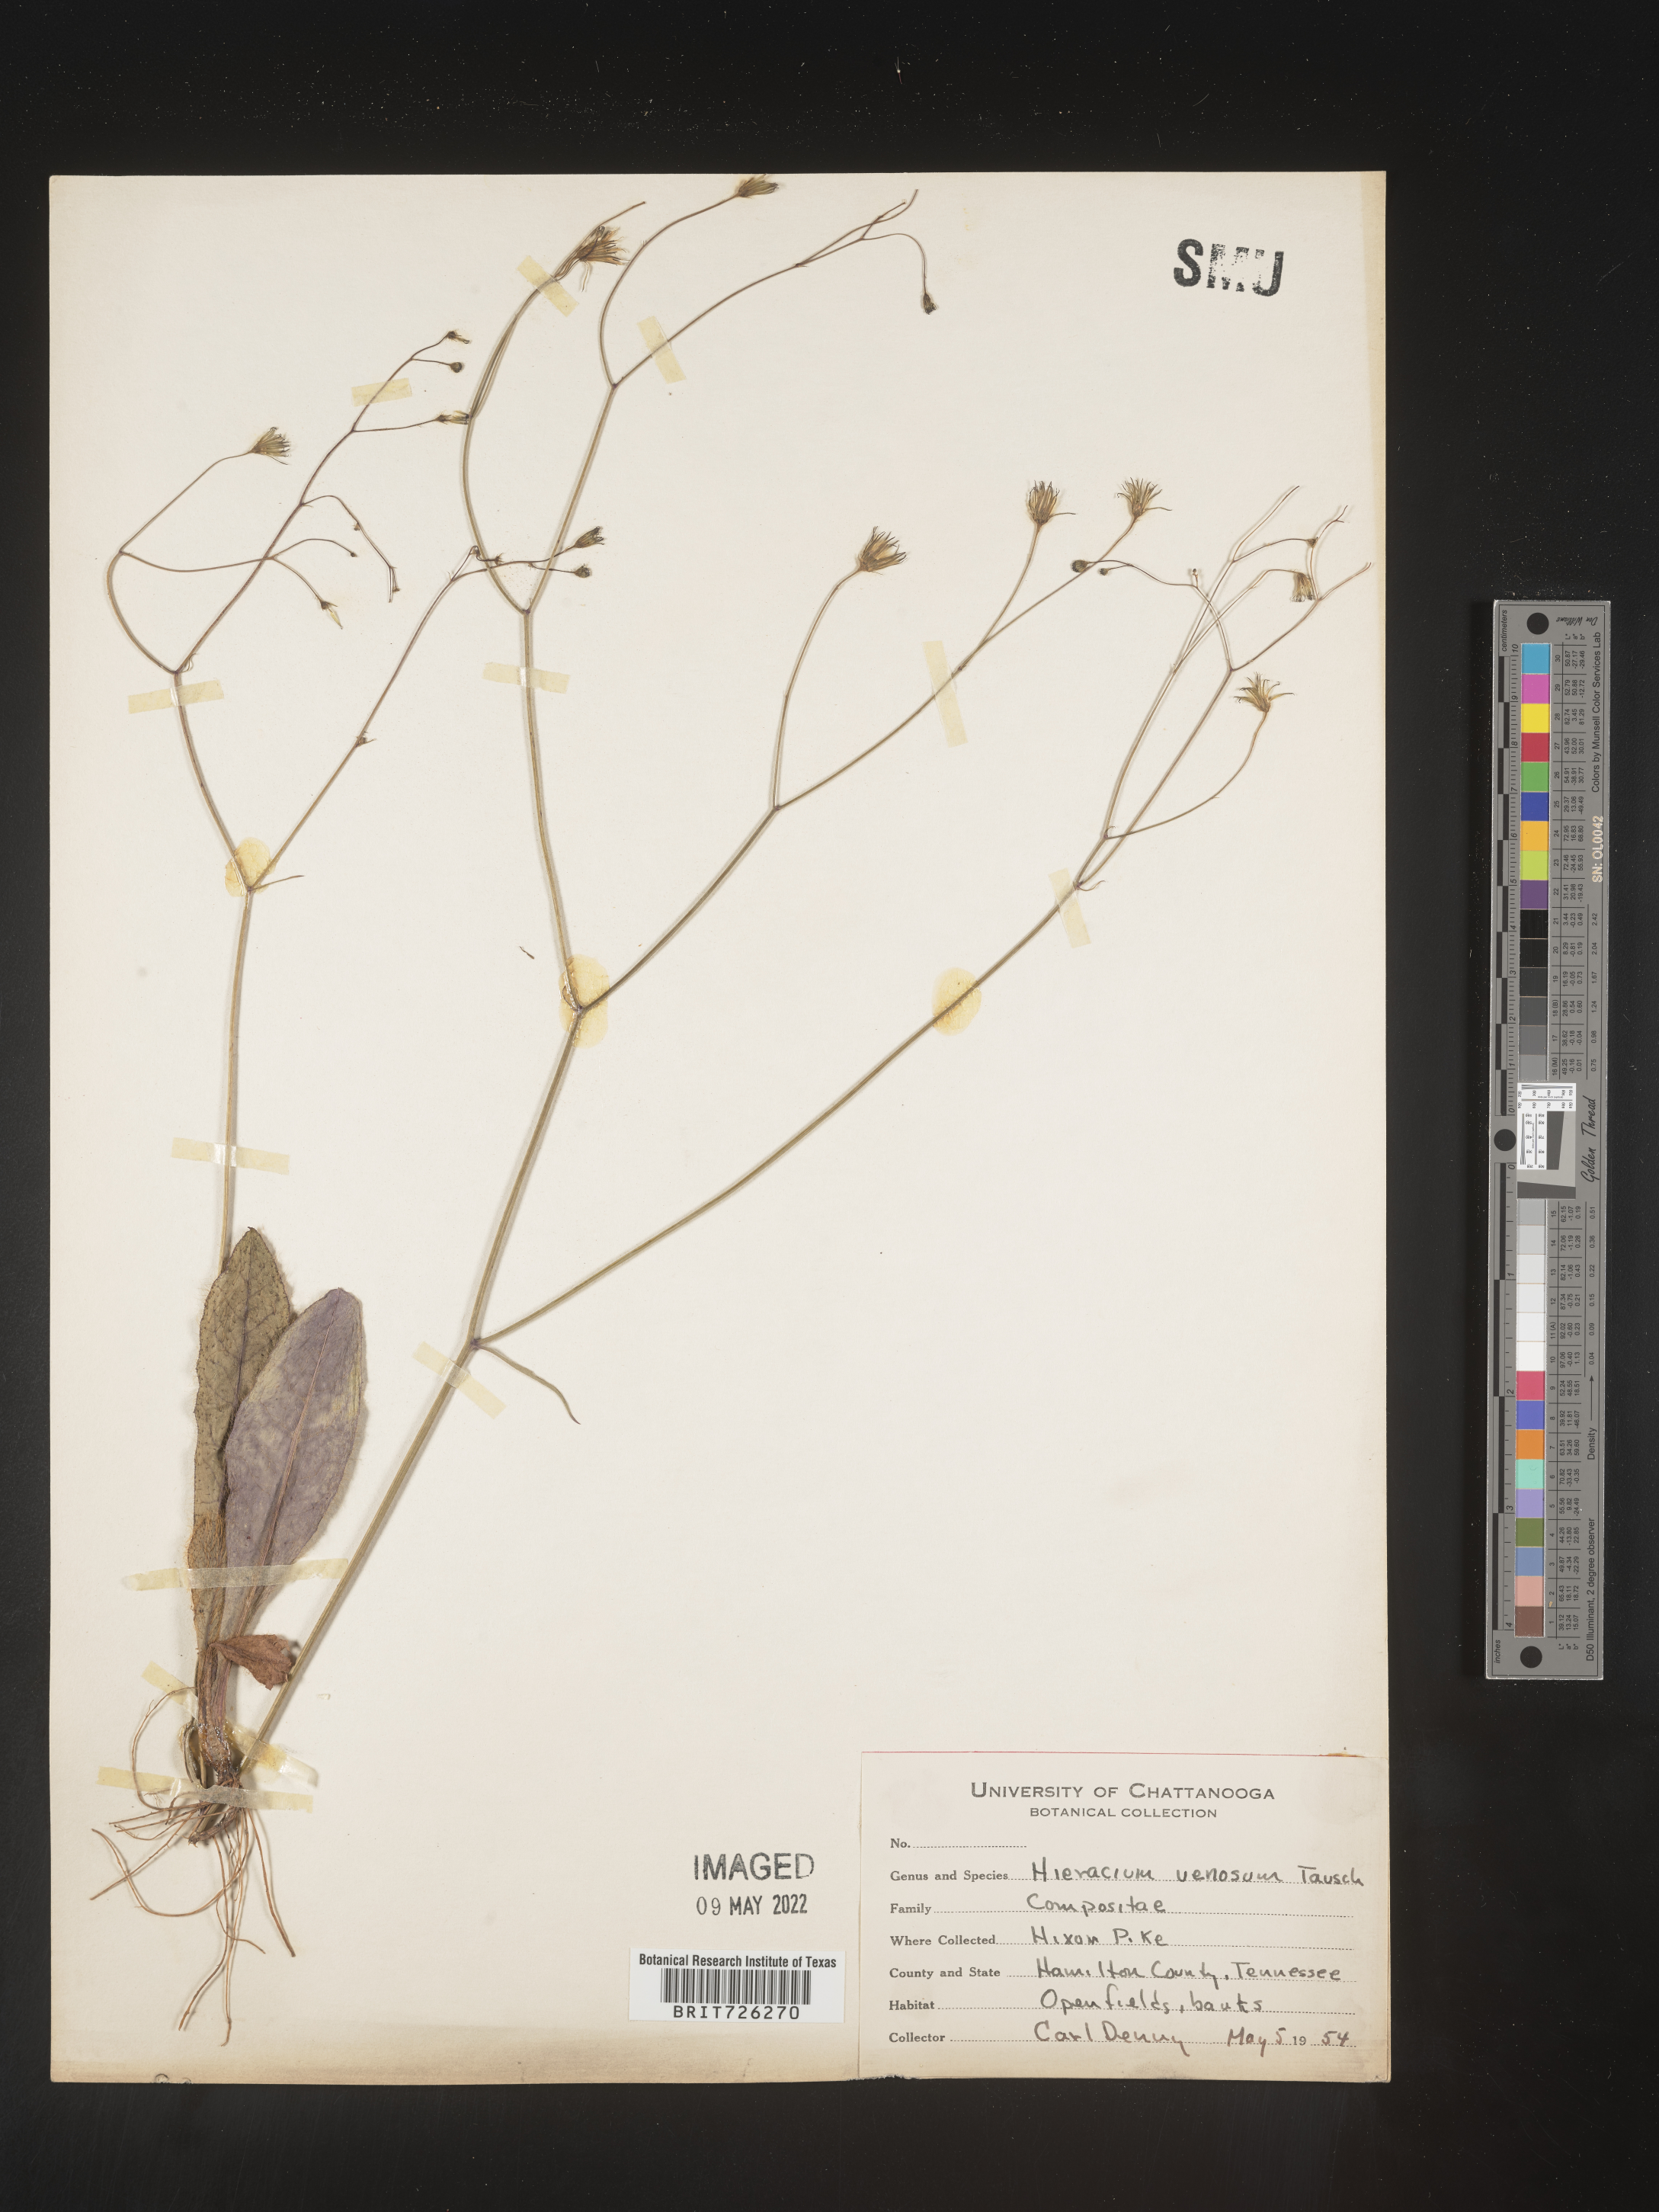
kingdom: Plantae
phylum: Tracheophyta
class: Magnoliopsida
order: Asterales
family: Asteraceae
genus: Hieracium
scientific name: Hieracium
